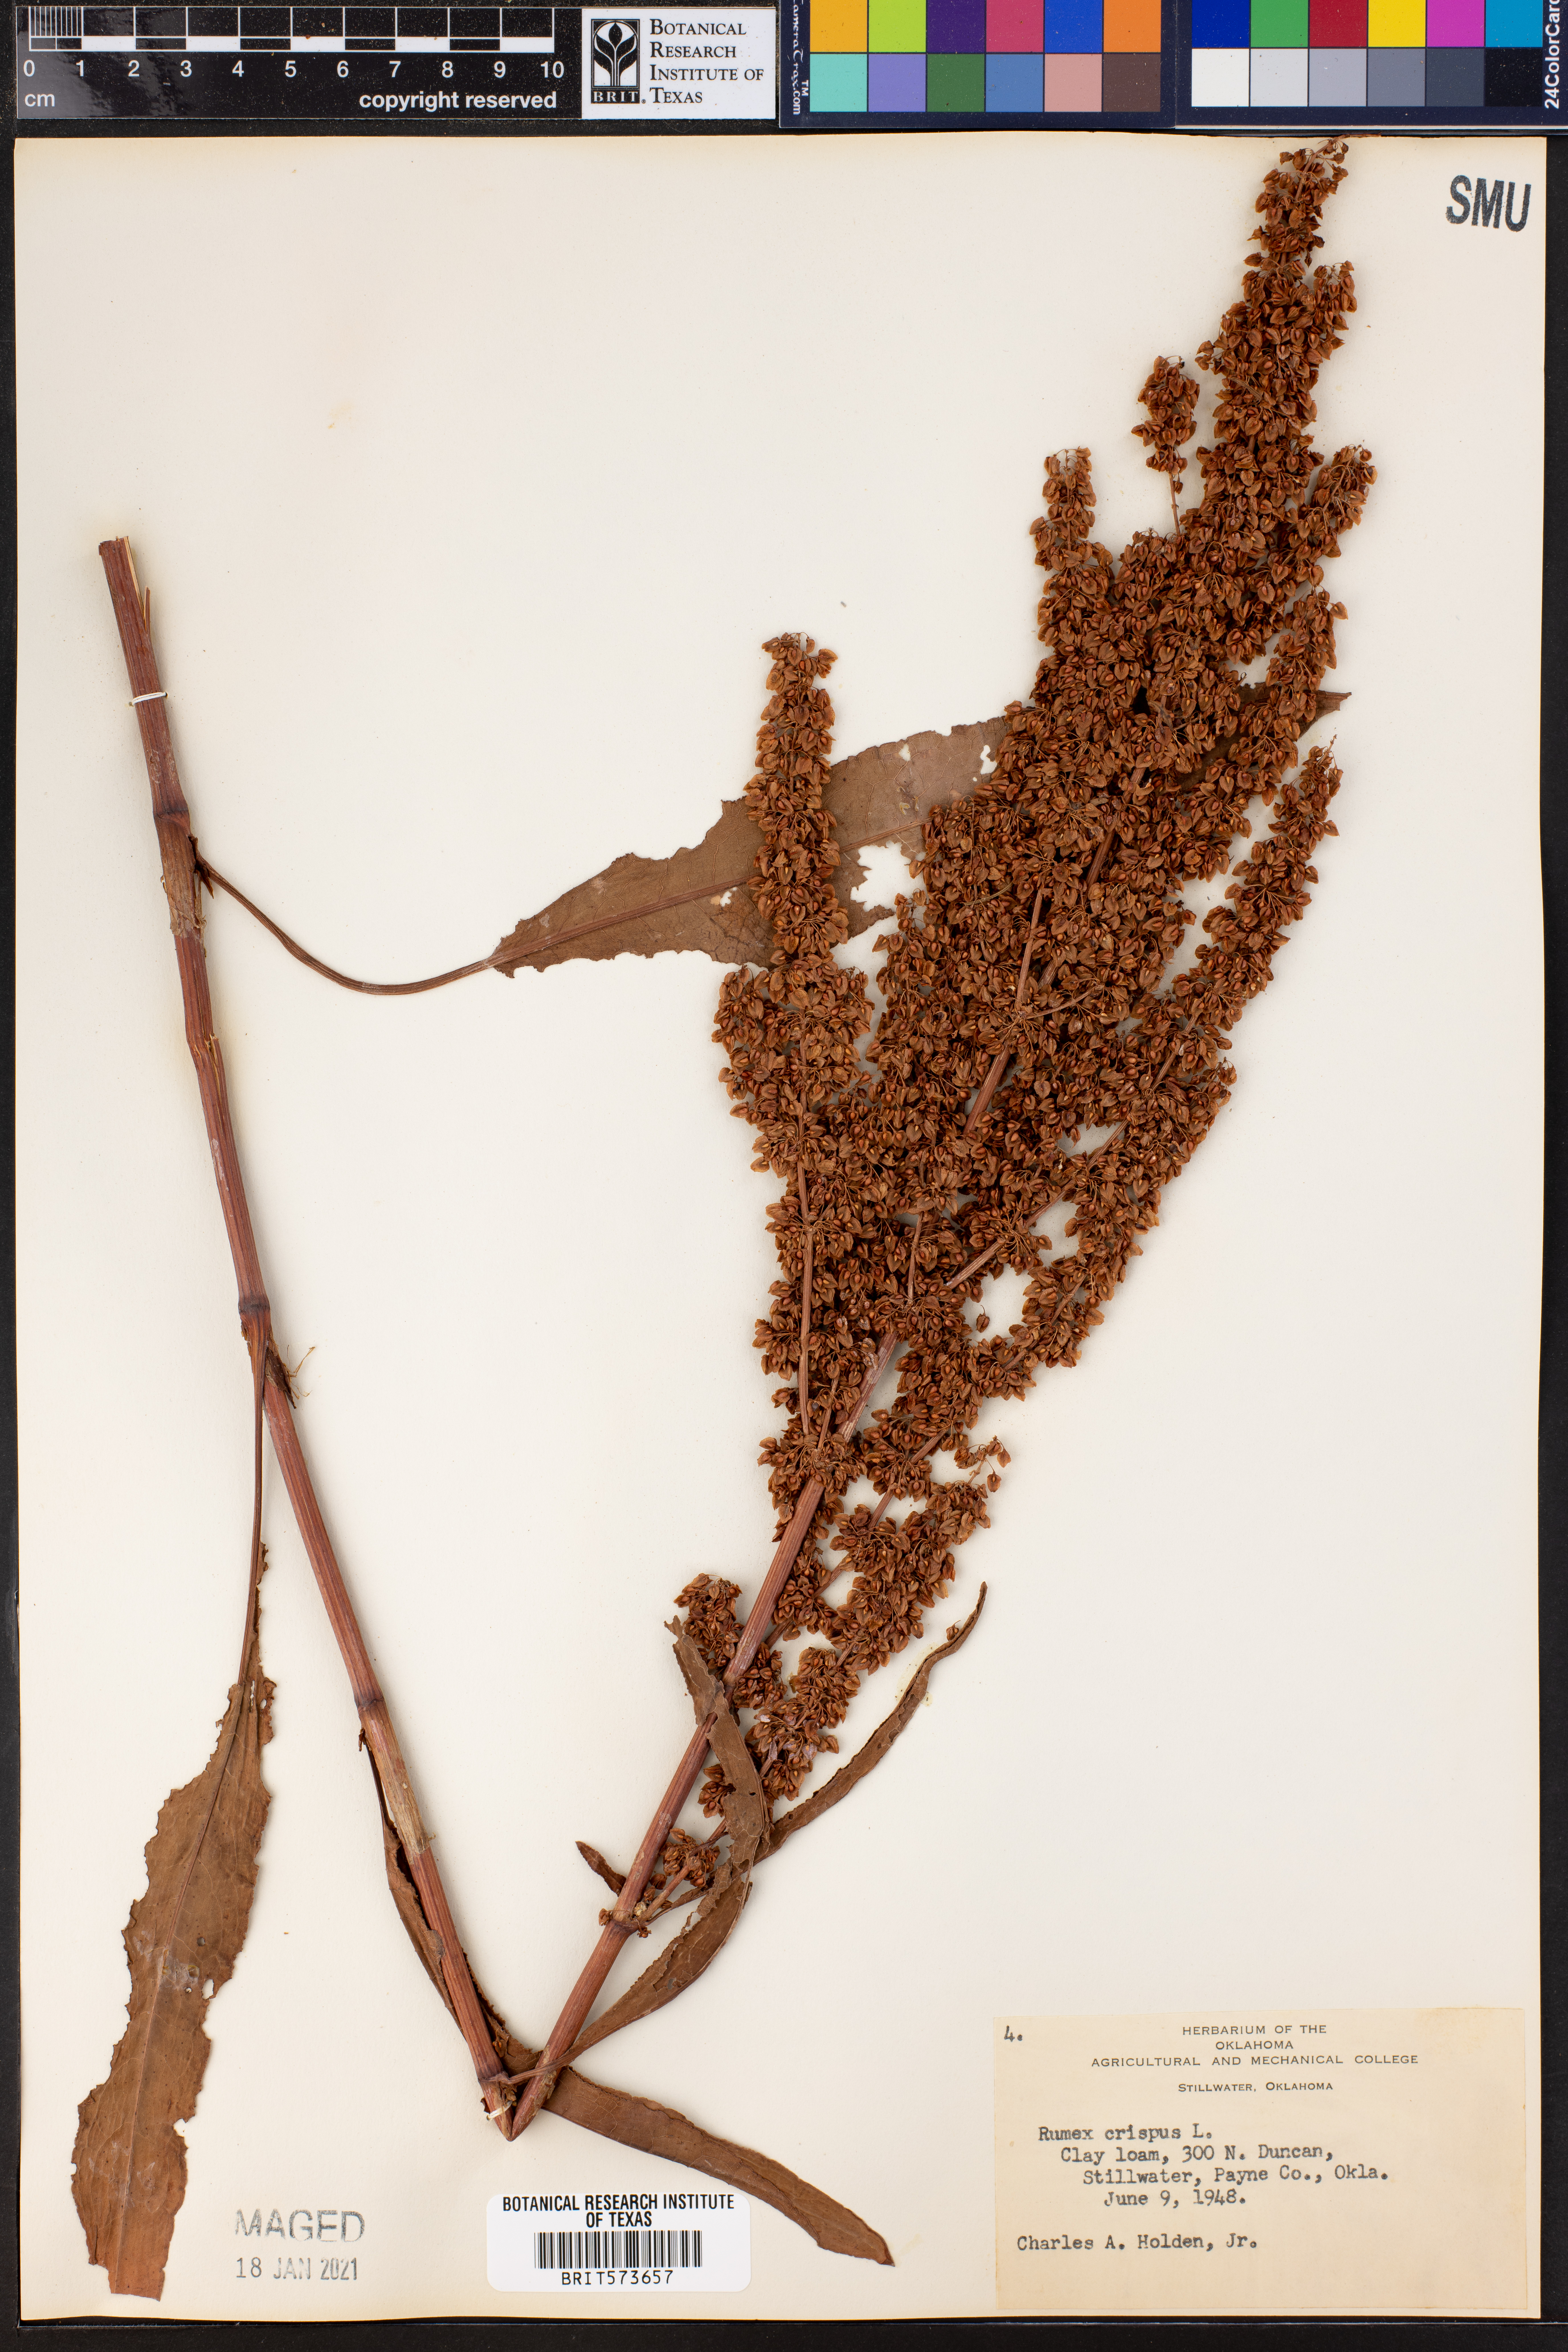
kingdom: Plantae
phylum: Tracheophyta
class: Magnoliopsida
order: Caryophyllales
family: Polygonaceae
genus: Rumex
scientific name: Rumex crispus
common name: Curled dock
